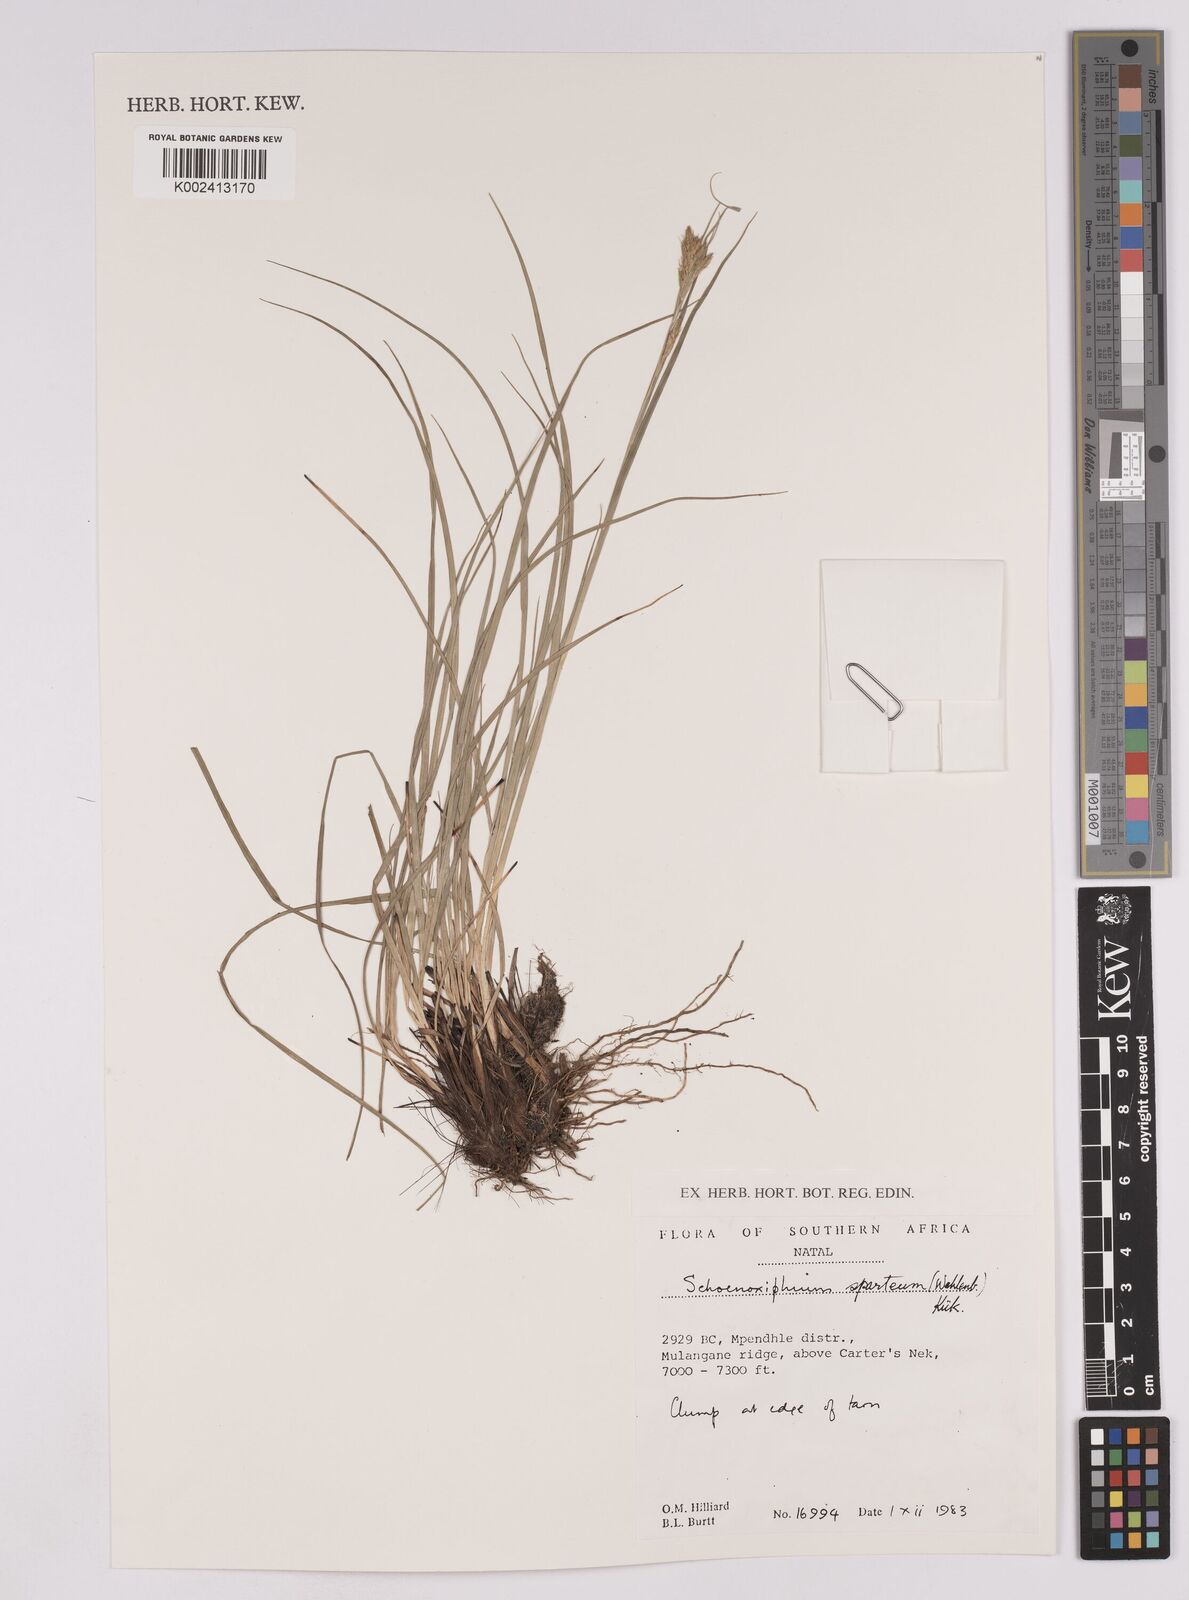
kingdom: Plantae
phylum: Tracheophyta
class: Liliopsida
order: Poales
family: Cyperaceae
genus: Carex
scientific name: Carex spartea
